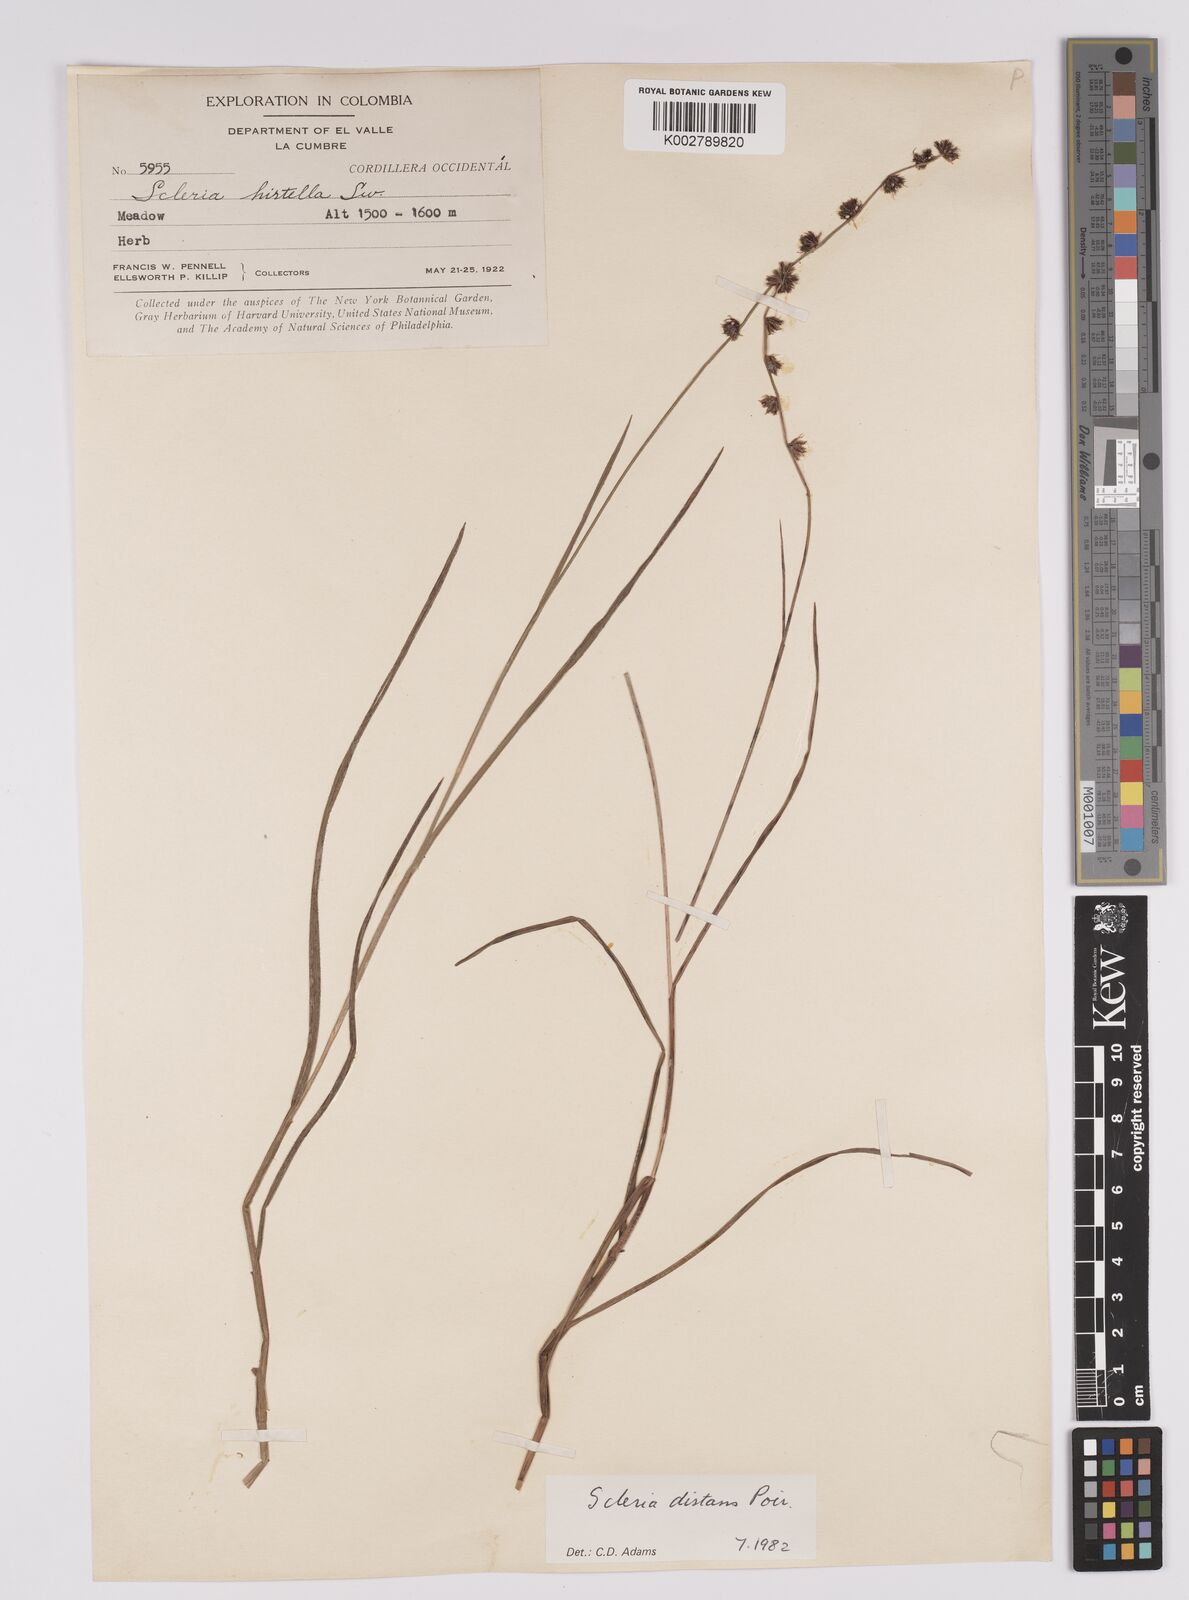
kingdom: Plantae
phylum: Tracheophyta
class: Liliopsida
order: Poales
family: Cyperaceae
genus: Scleria
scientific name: Scleria distans
